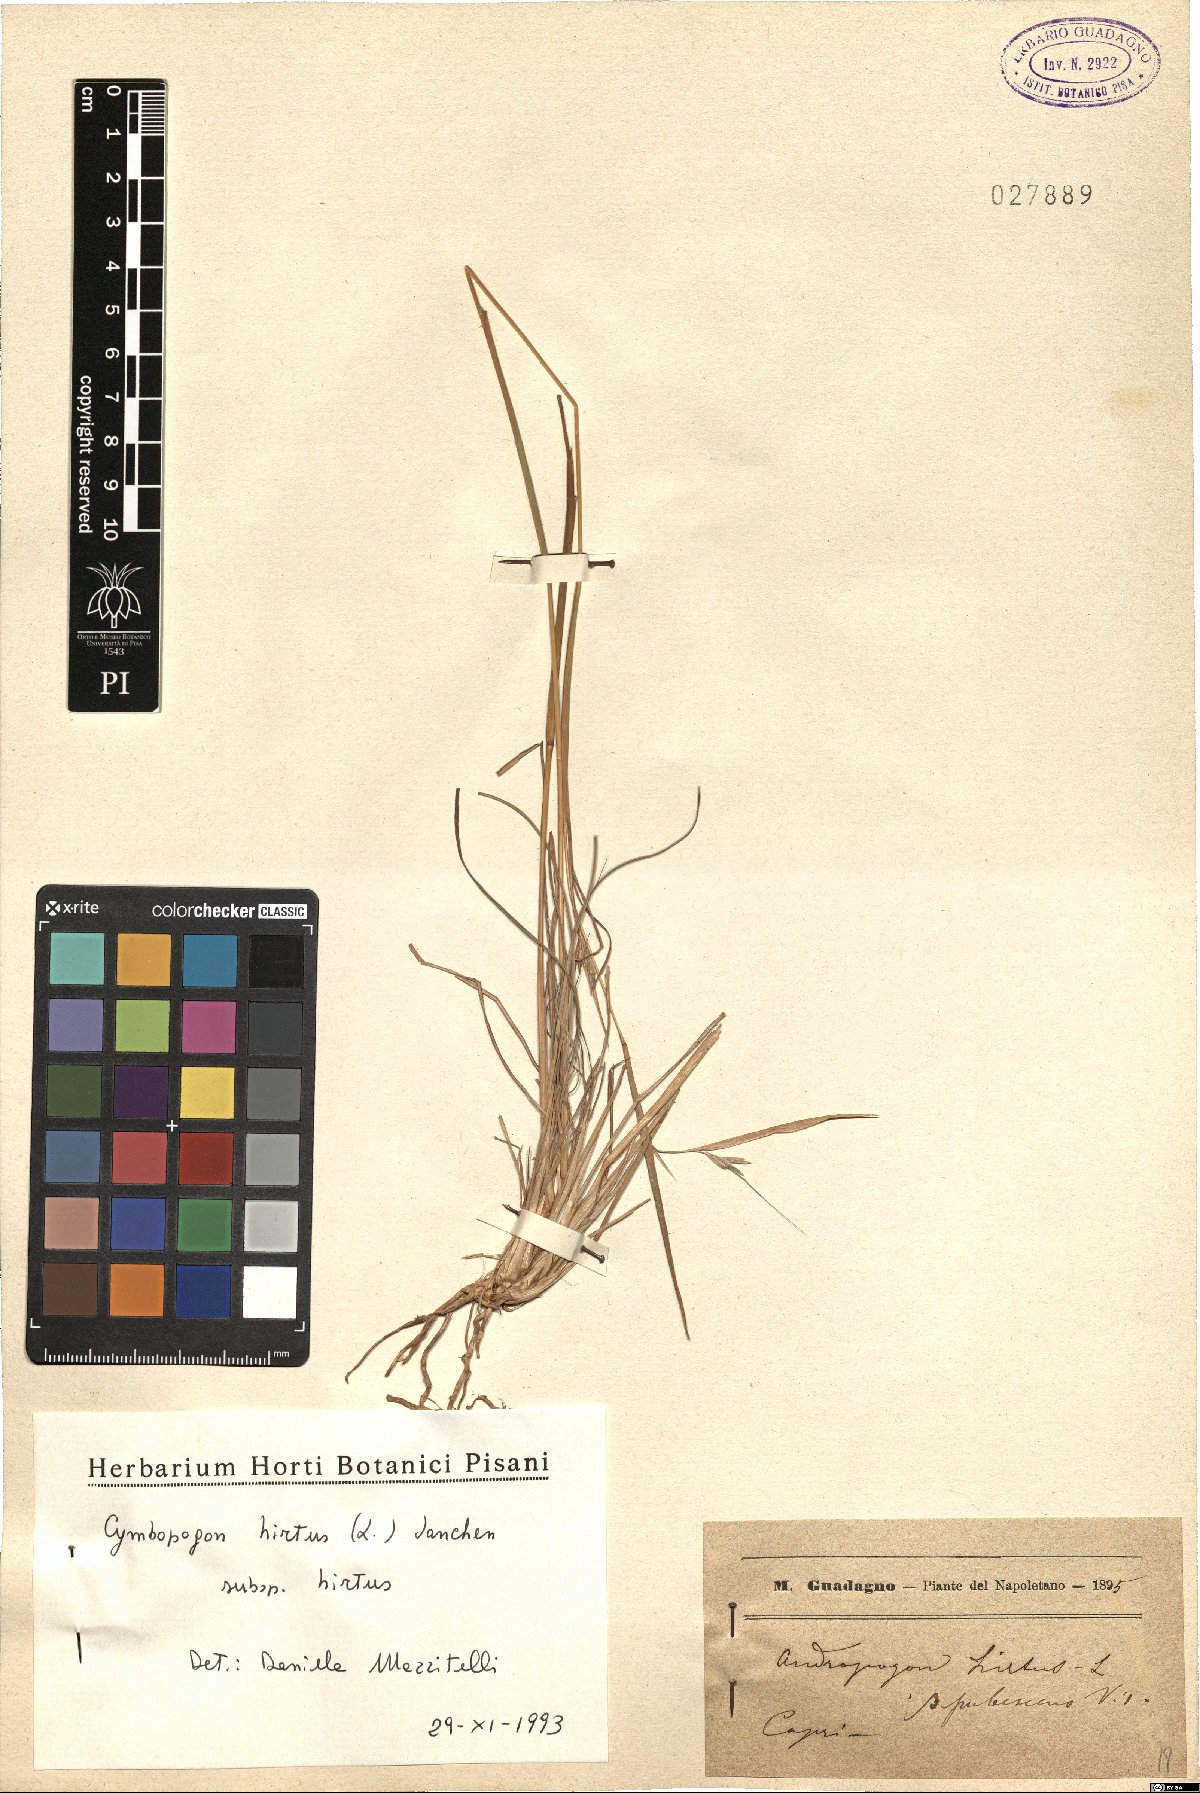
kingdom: Plantae
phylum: Tracheophyta
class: Liliopsida
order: Poales
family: Poaceae
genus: Cymbopogon
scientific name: Cymbopogon hirtus
